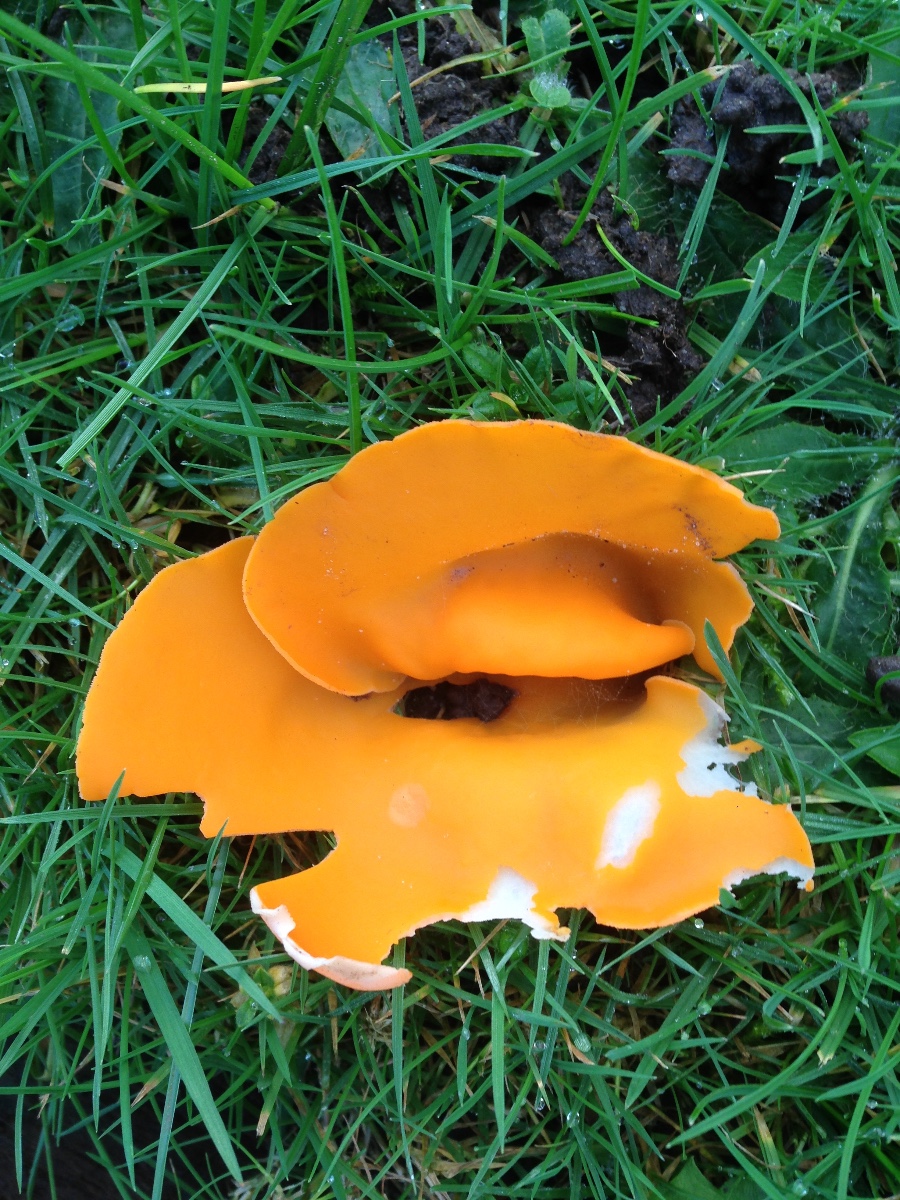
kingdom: Fungi
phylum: Ascomycota
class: Pezizomycetes
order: Pezizales
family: Pyronemataceae
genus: Aleuria
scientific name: Aleuria aurantia
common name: almindelig orangebæger
